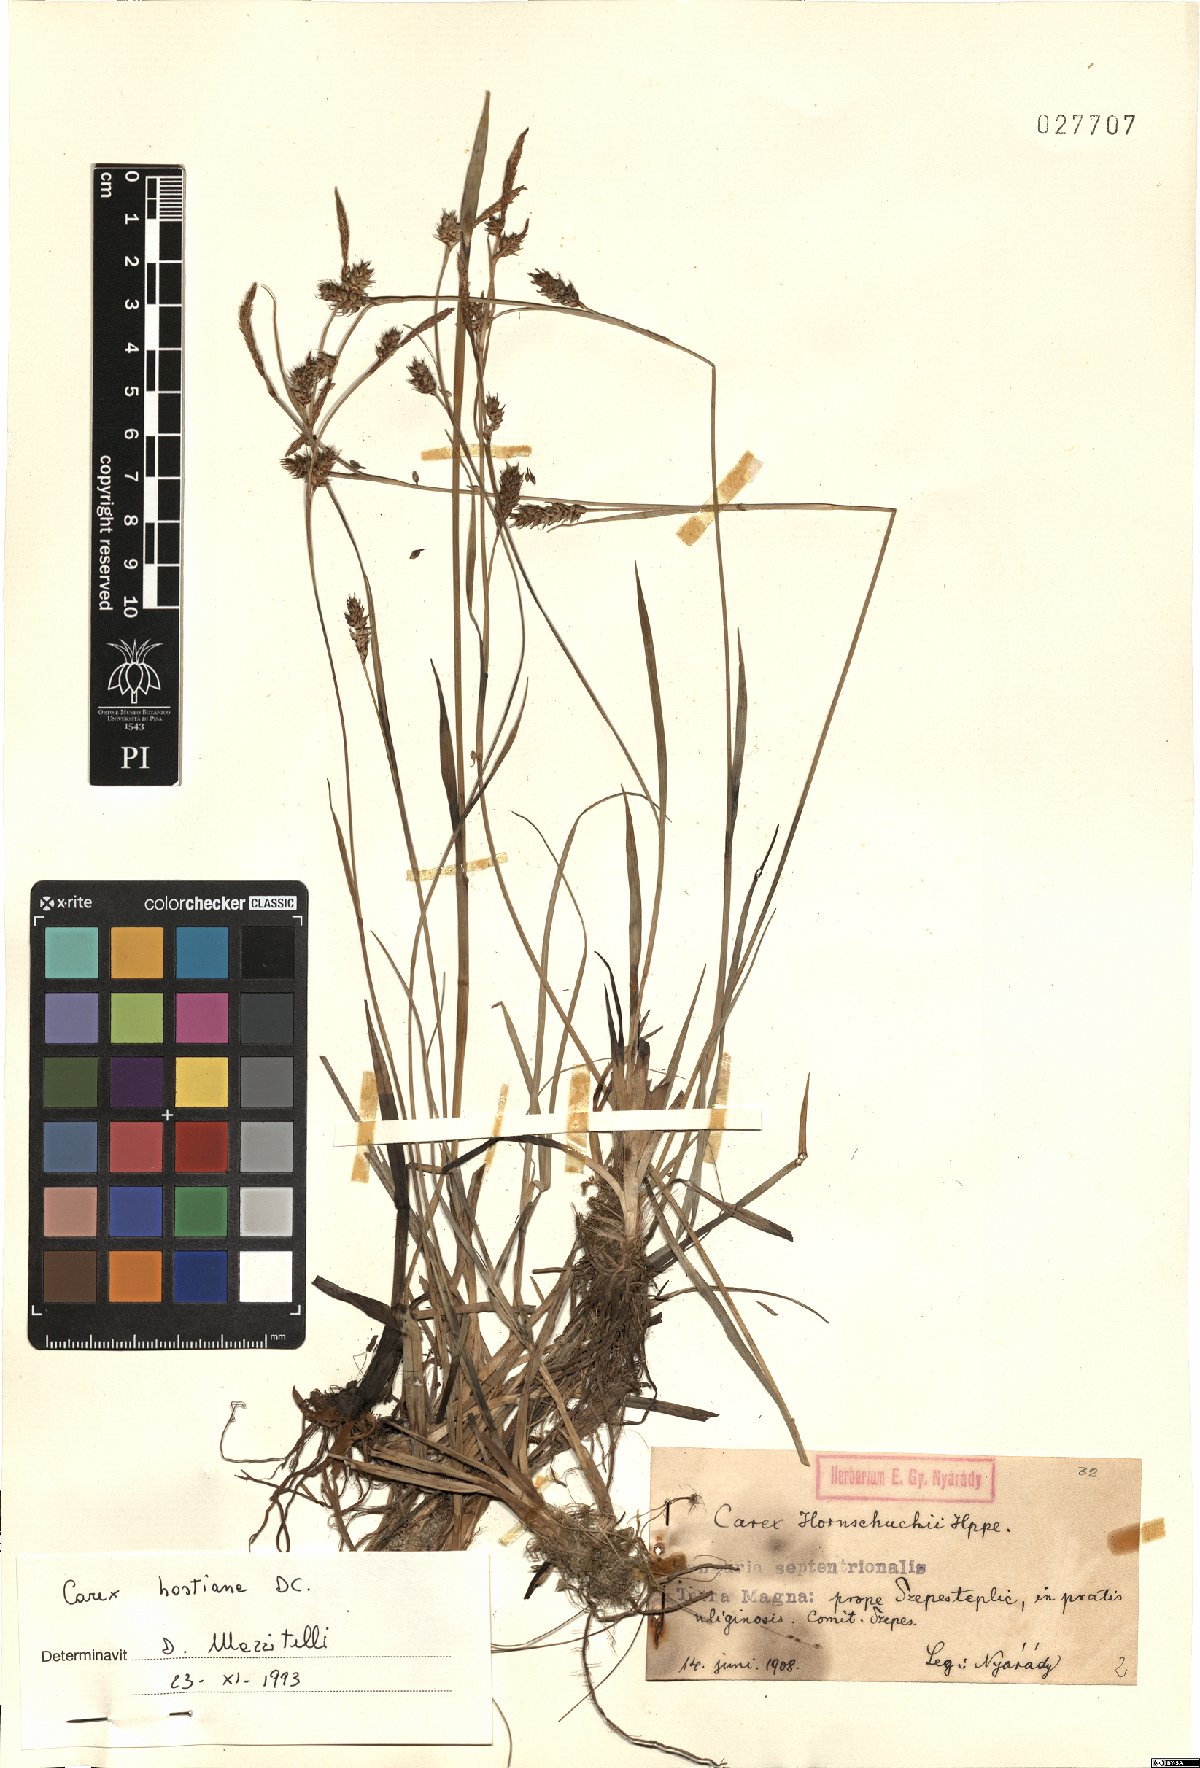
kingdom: Plantae
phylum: Tracheophyta
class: Liliopsida
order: Poales
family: Cyperaceae
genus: Carex
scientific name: Carex hostiana
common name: Tawny sedge
